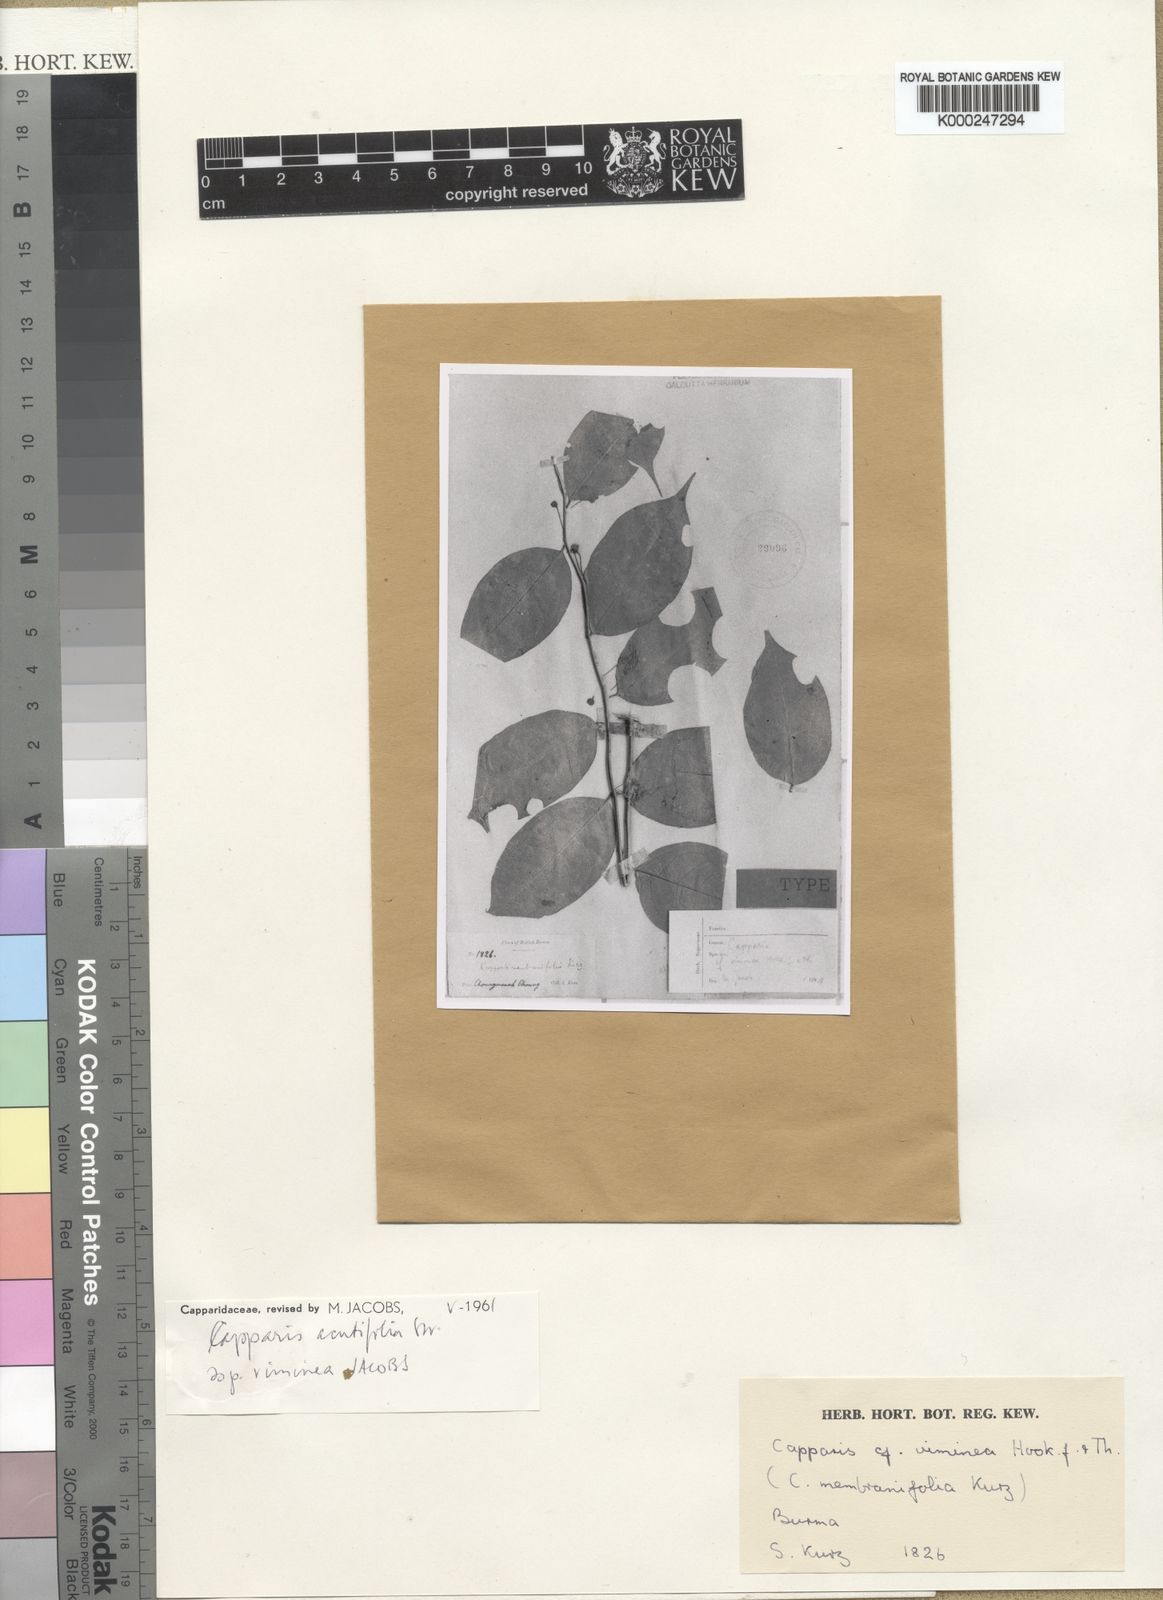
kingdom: Plantae
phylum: Tracheophyta
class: Magnoliopsida
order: Brassicales
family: Capparaceae
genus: Capparis
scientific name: Capparis
